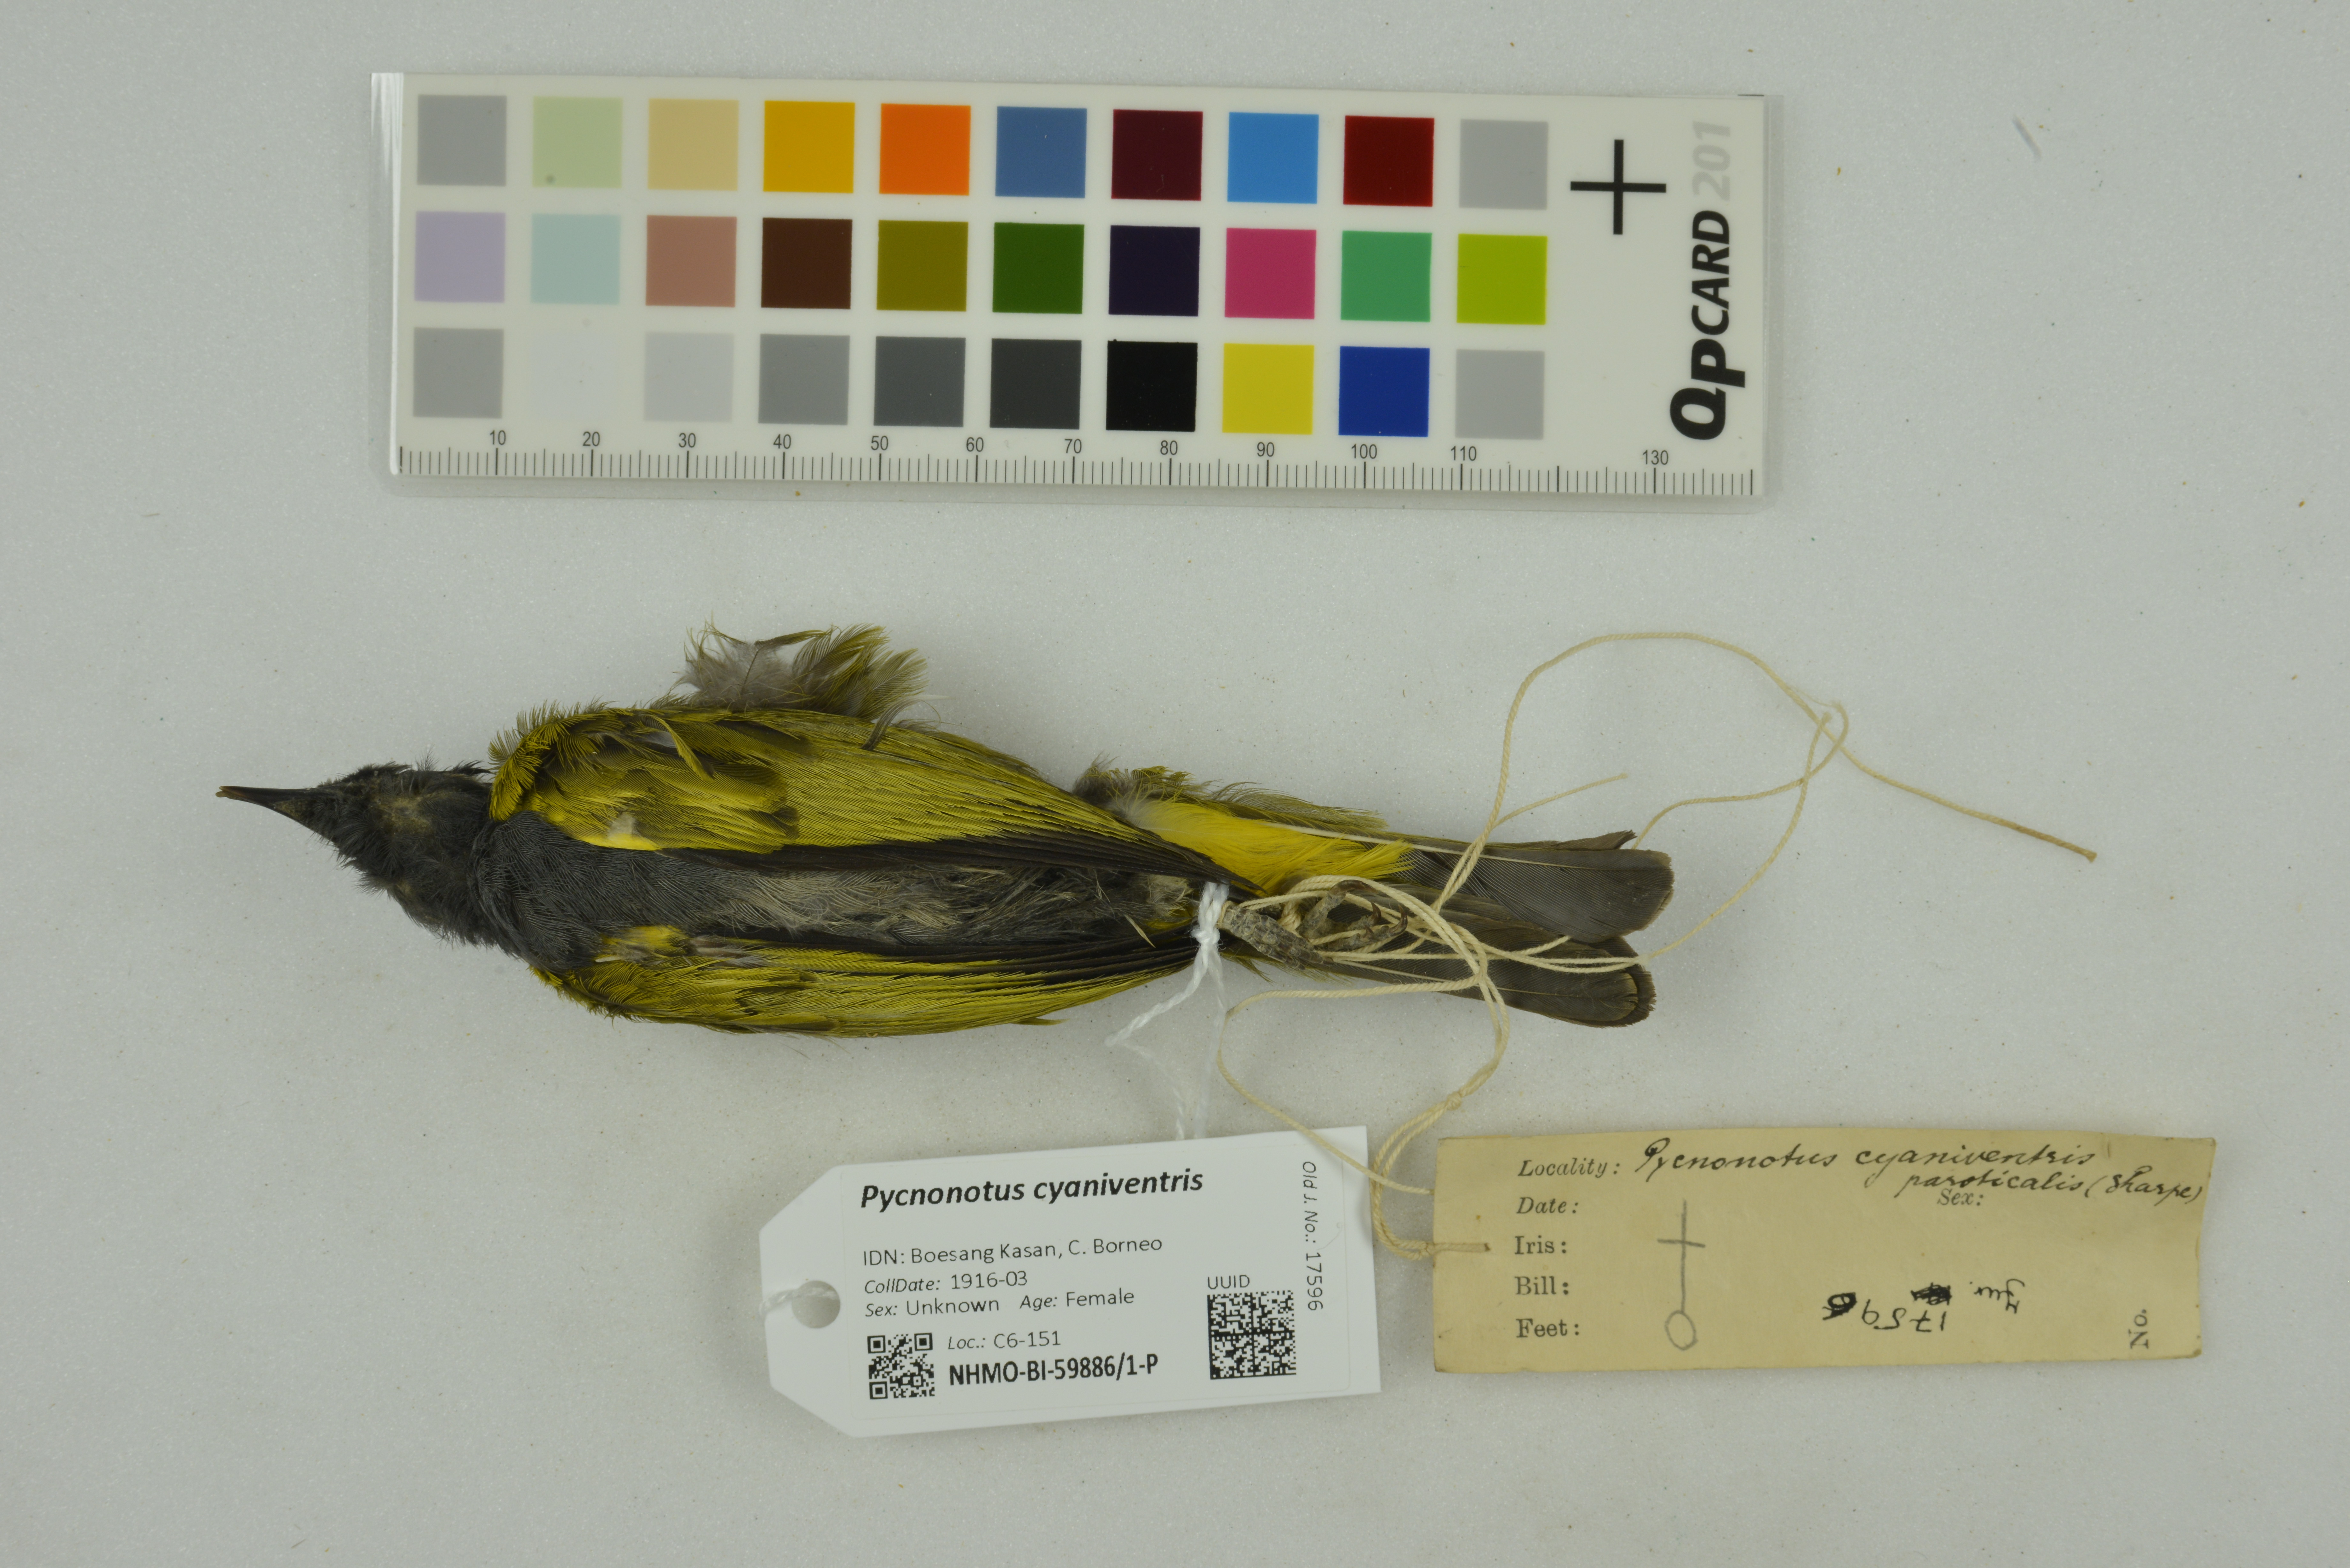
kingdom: Animalia
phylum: Chordata
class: Aves
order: Passeriformes
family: Pycnonotidae
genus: Pycnonotus
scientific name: Pycnonotus cyaniventris
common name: Grey-bellied bulbul
